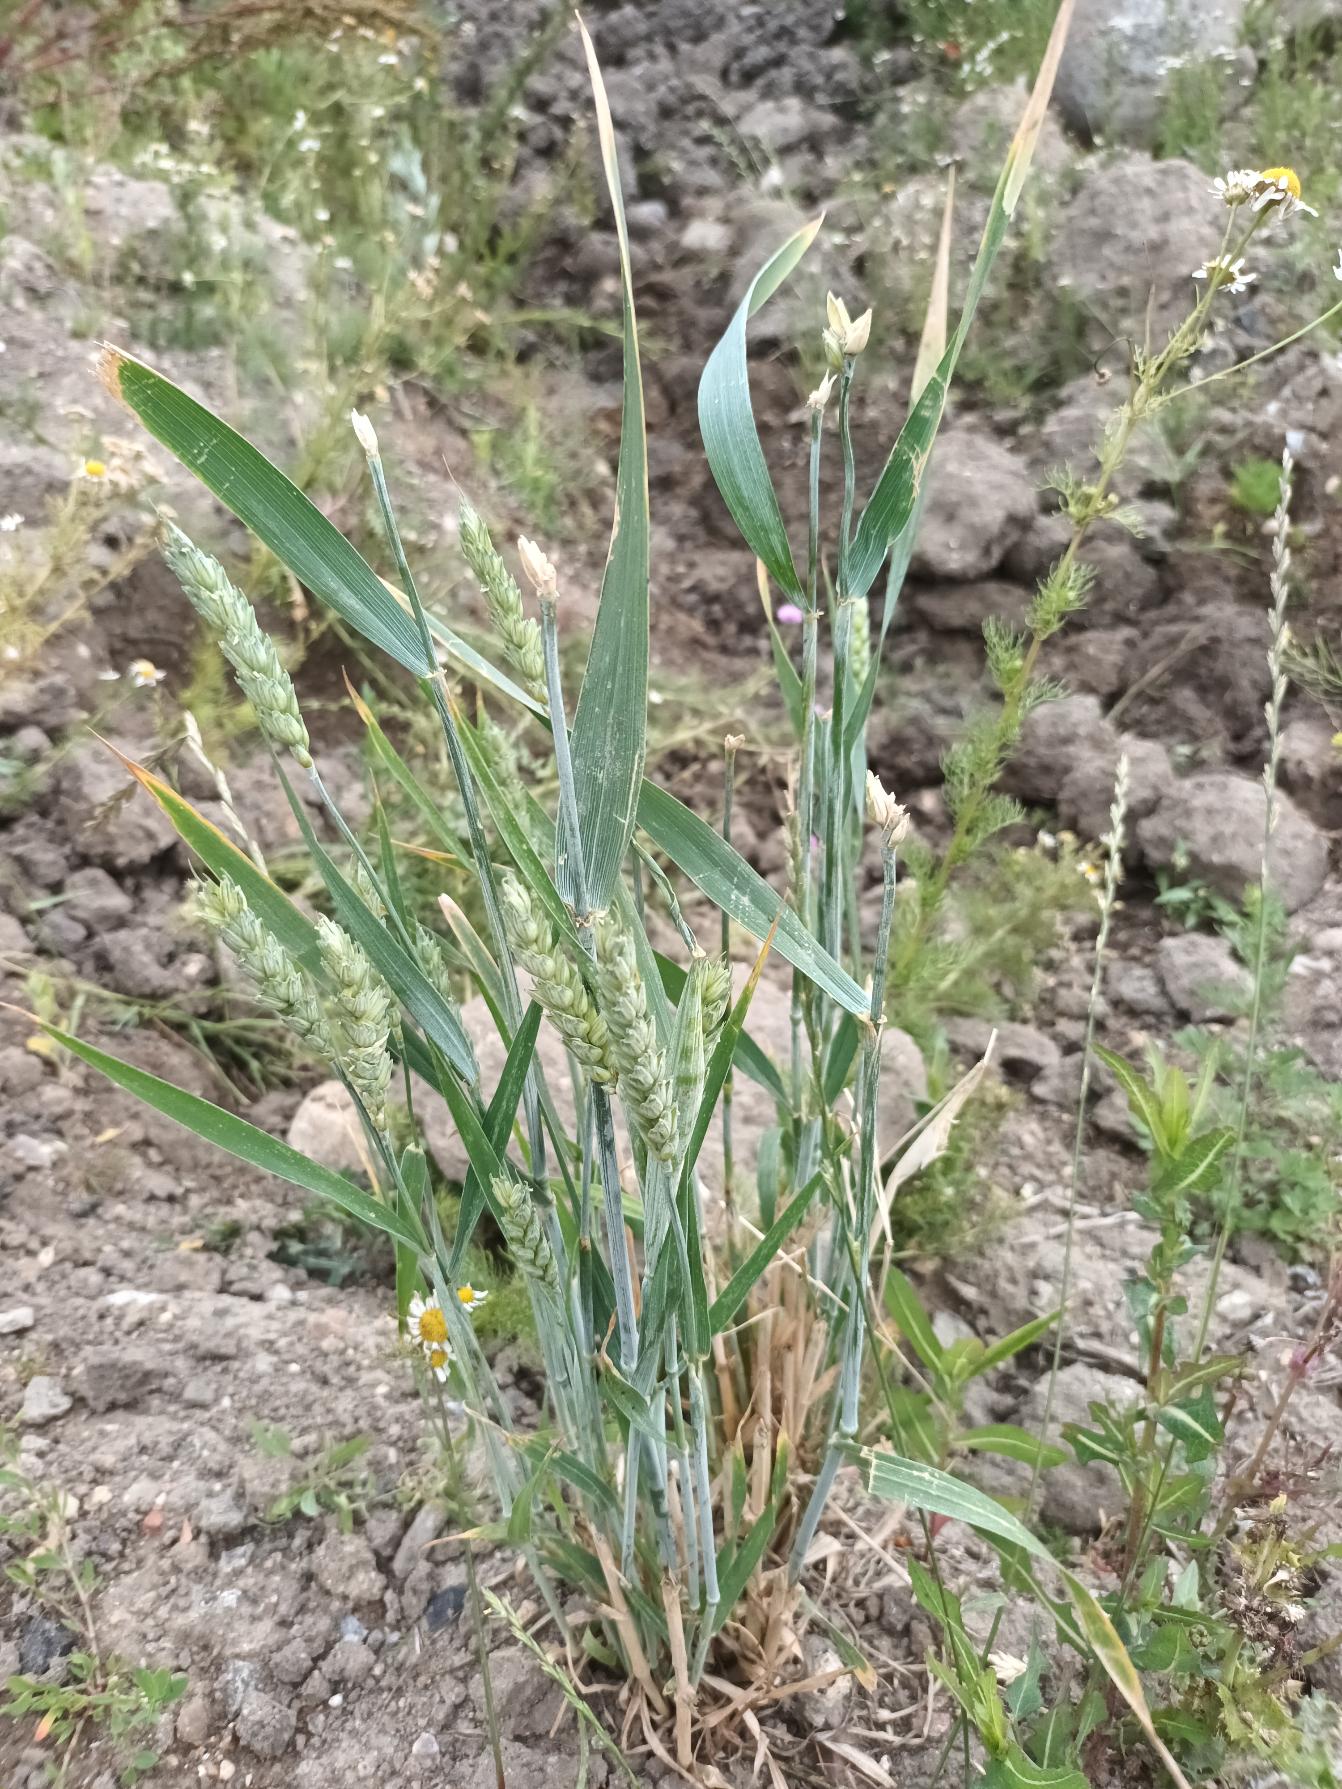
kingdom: Plantae
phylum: Tracheophyta
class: Liliopsida
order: Poales
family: Poaceae
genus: Triticum
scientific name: Triticum aestivum
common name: Almindelig hvede
